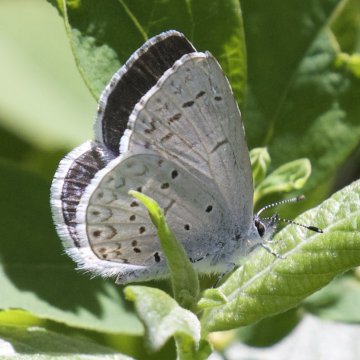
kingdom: Animalia
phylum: Arthropoda
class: Insecta
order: Lepidoptera
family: Lycaenidae
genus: Celastrina
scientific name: Celastrina ladon
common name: Echo Azure
